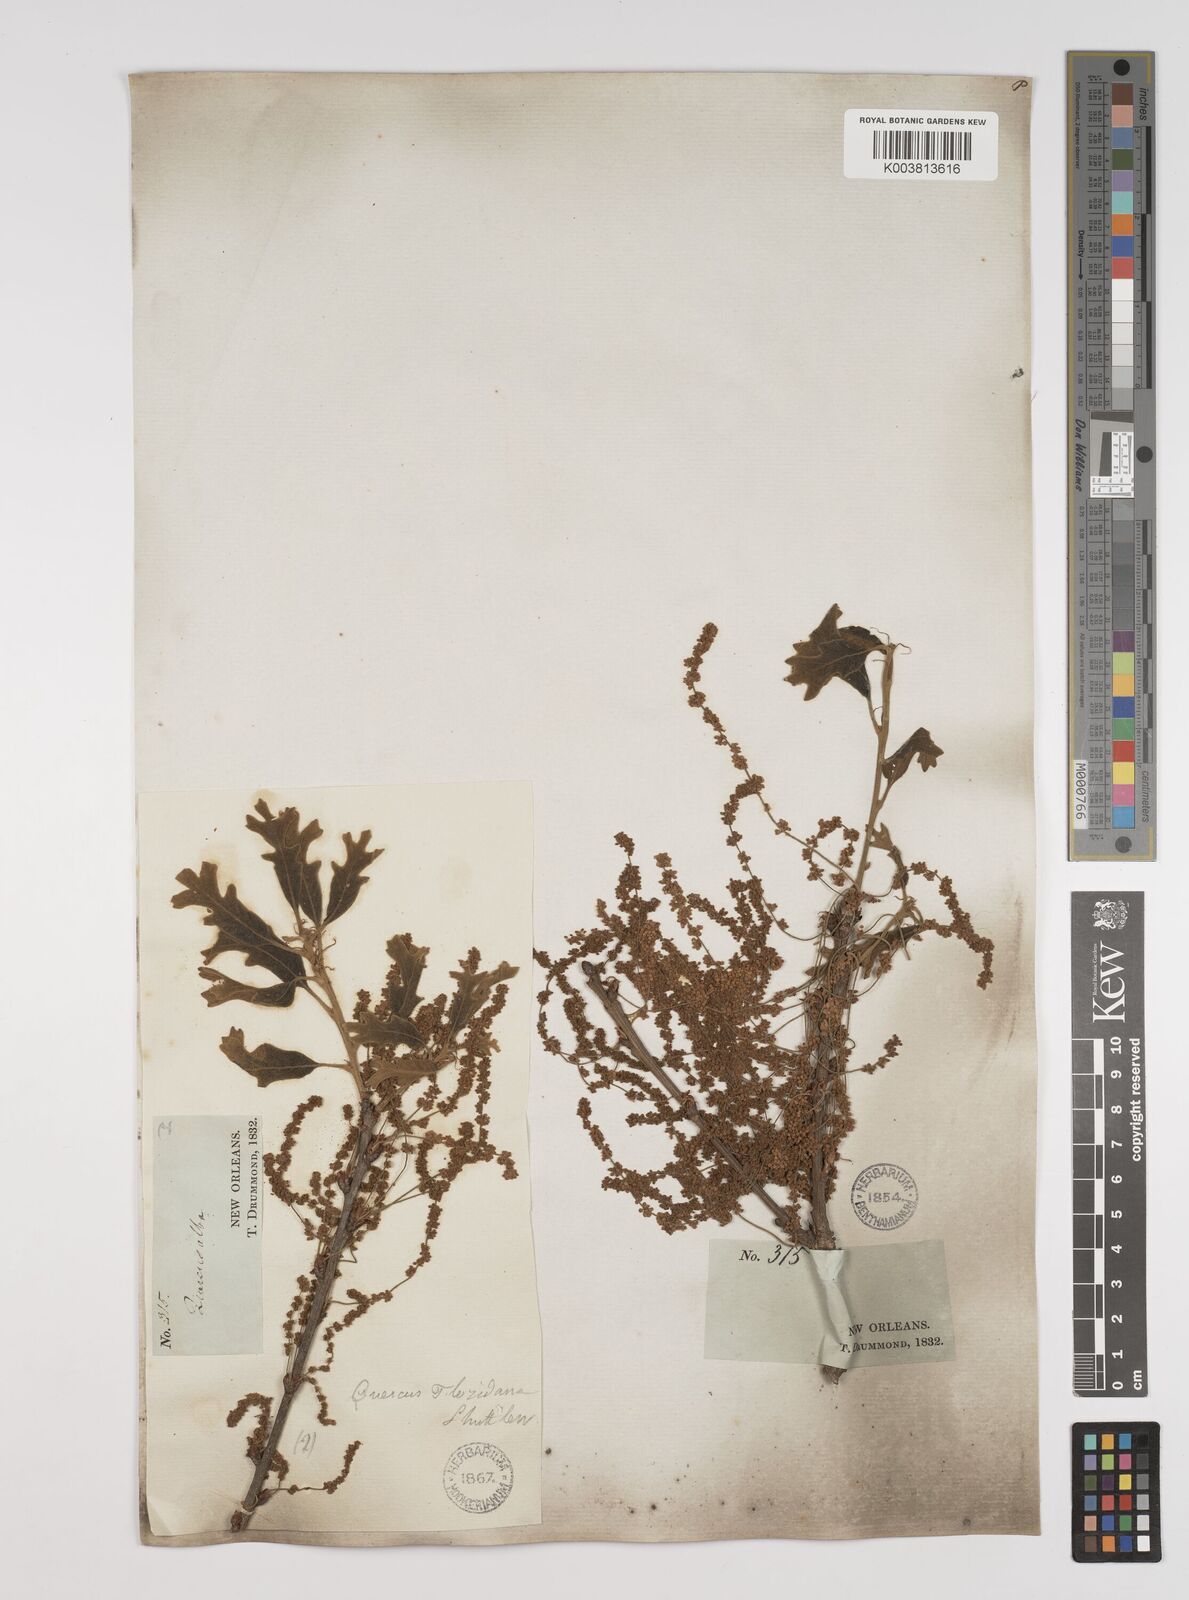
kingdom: Plantae
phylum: Tracheophyta
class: Magnoliopsida
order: Fagales
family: Fagaceae
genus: Quercus
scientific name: Quercus stellata
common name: Post oak
